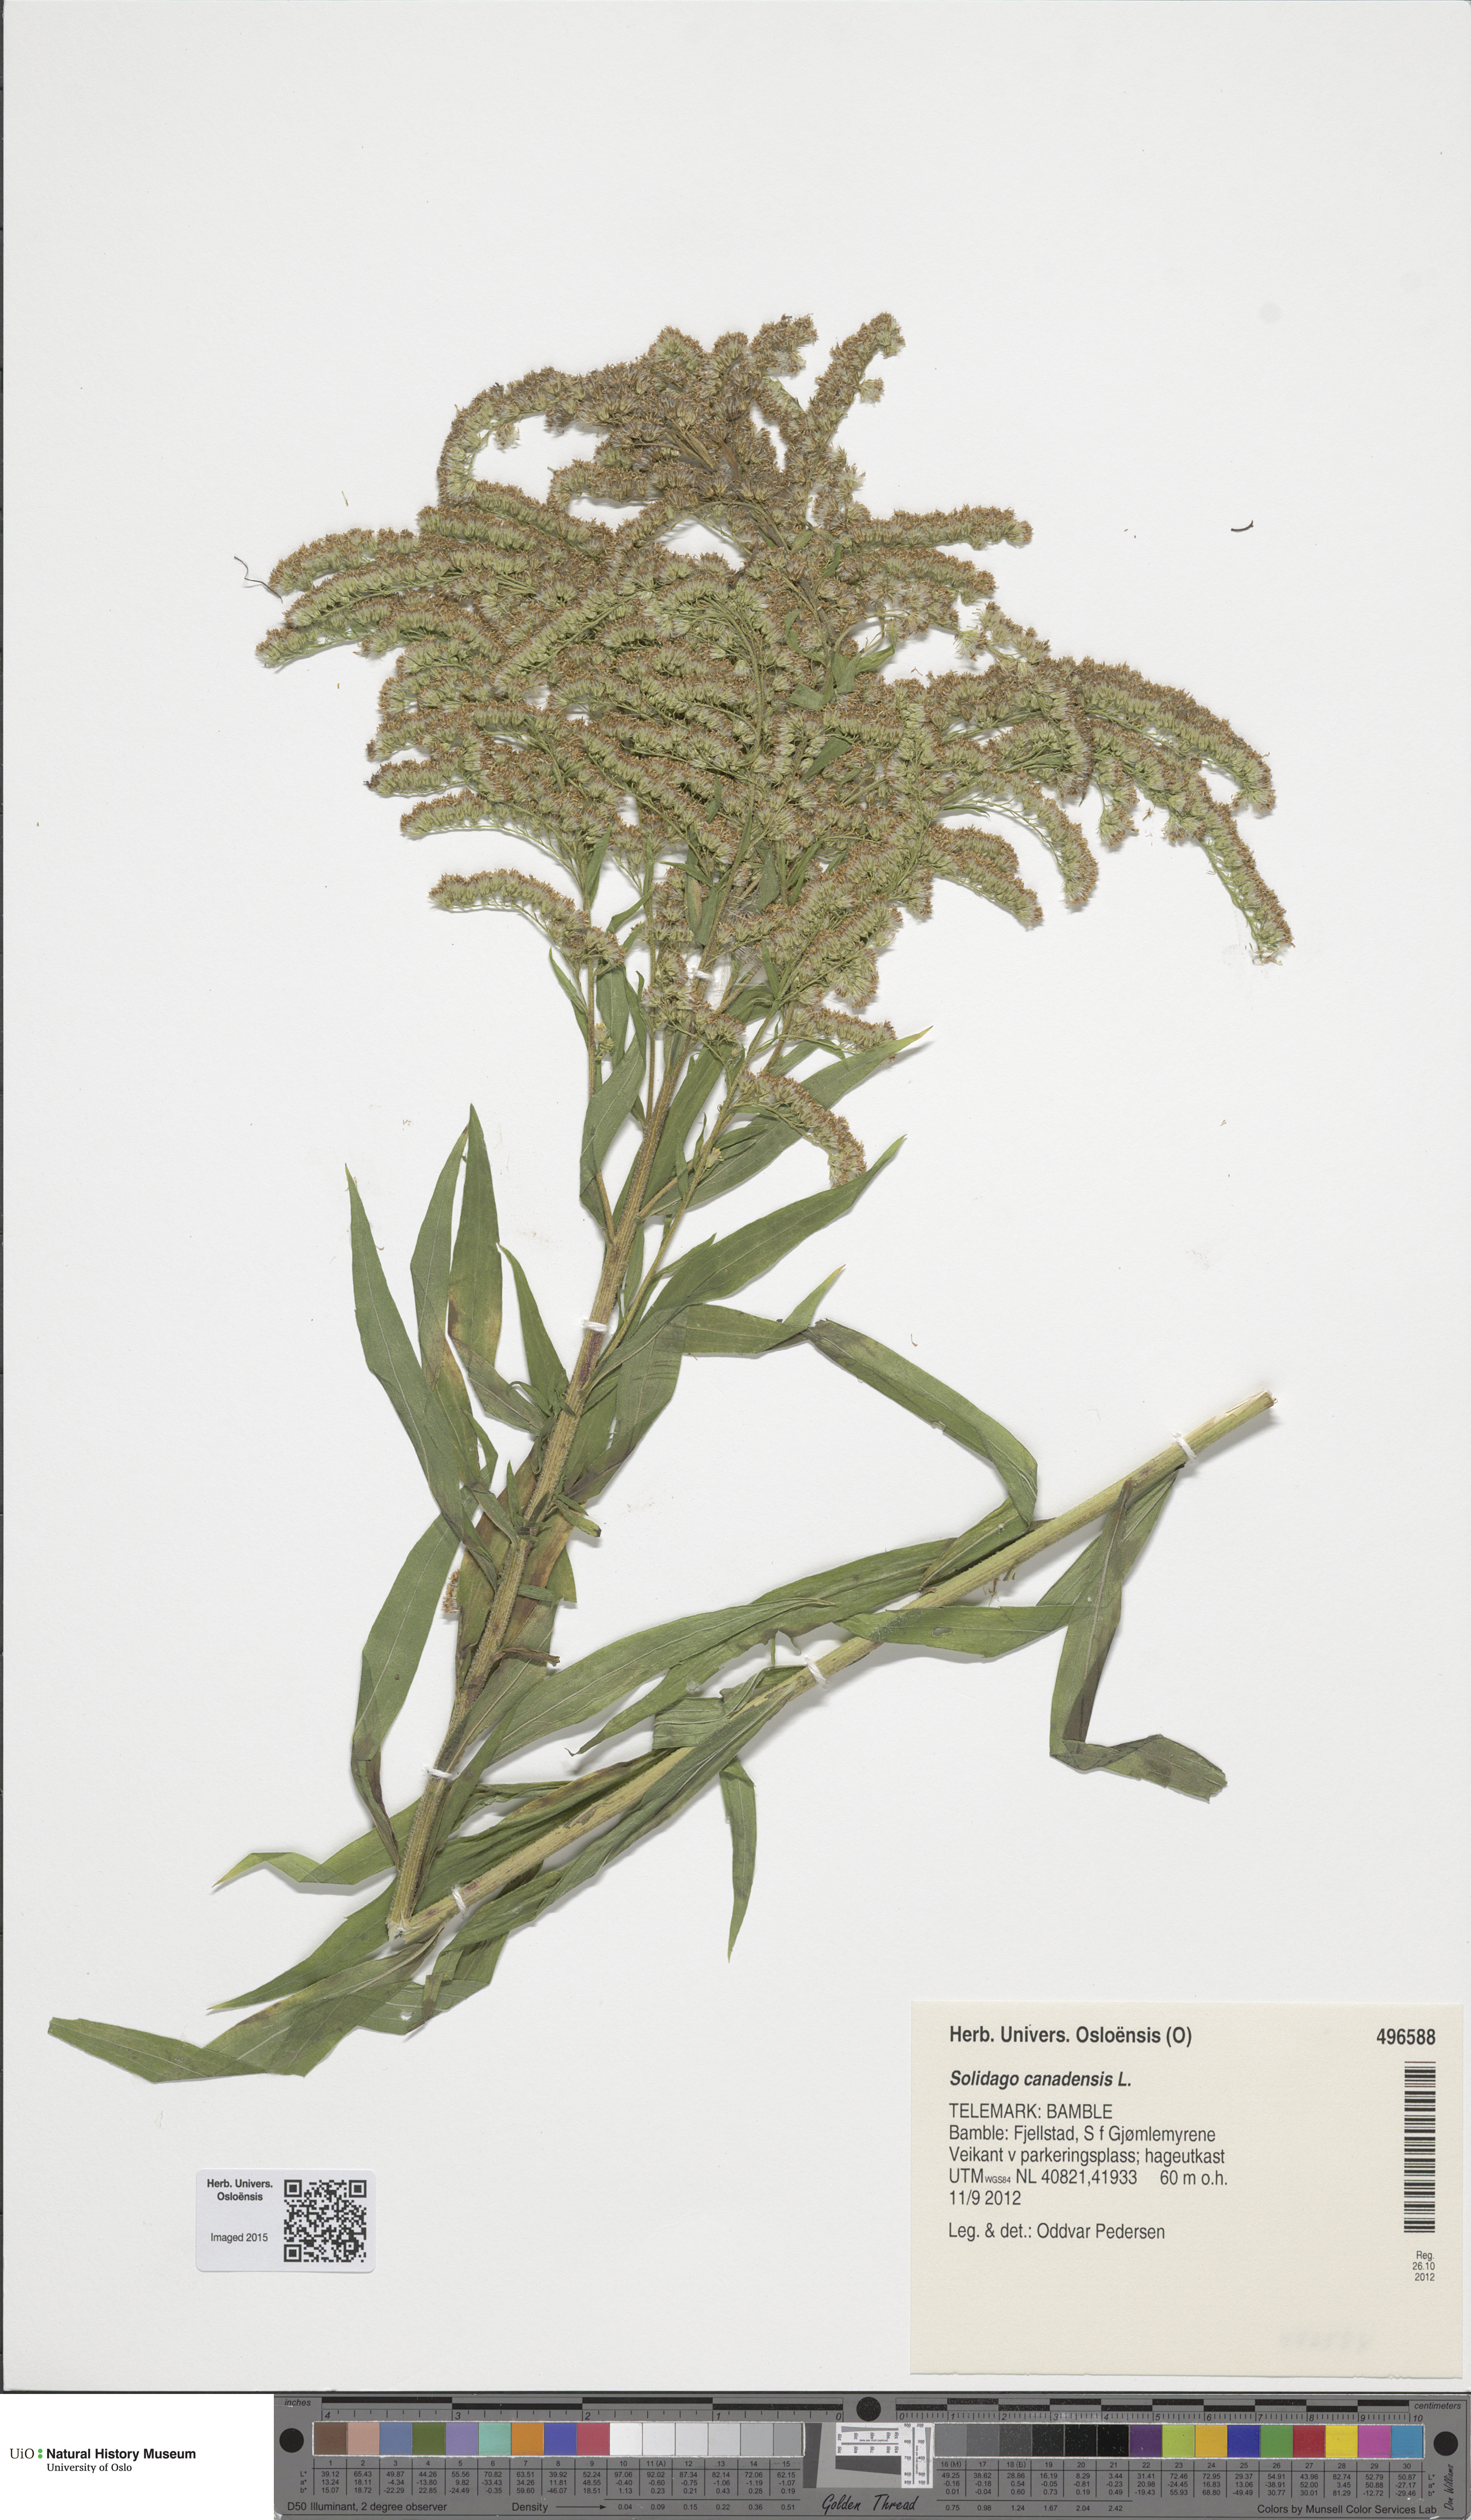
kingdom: Plantae
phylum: Tracheophyta
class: Magnoliopsida
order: Asterales
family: Asteraceae
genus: Solidago
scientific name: Solidago canadensis
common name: Canada goldenrod
